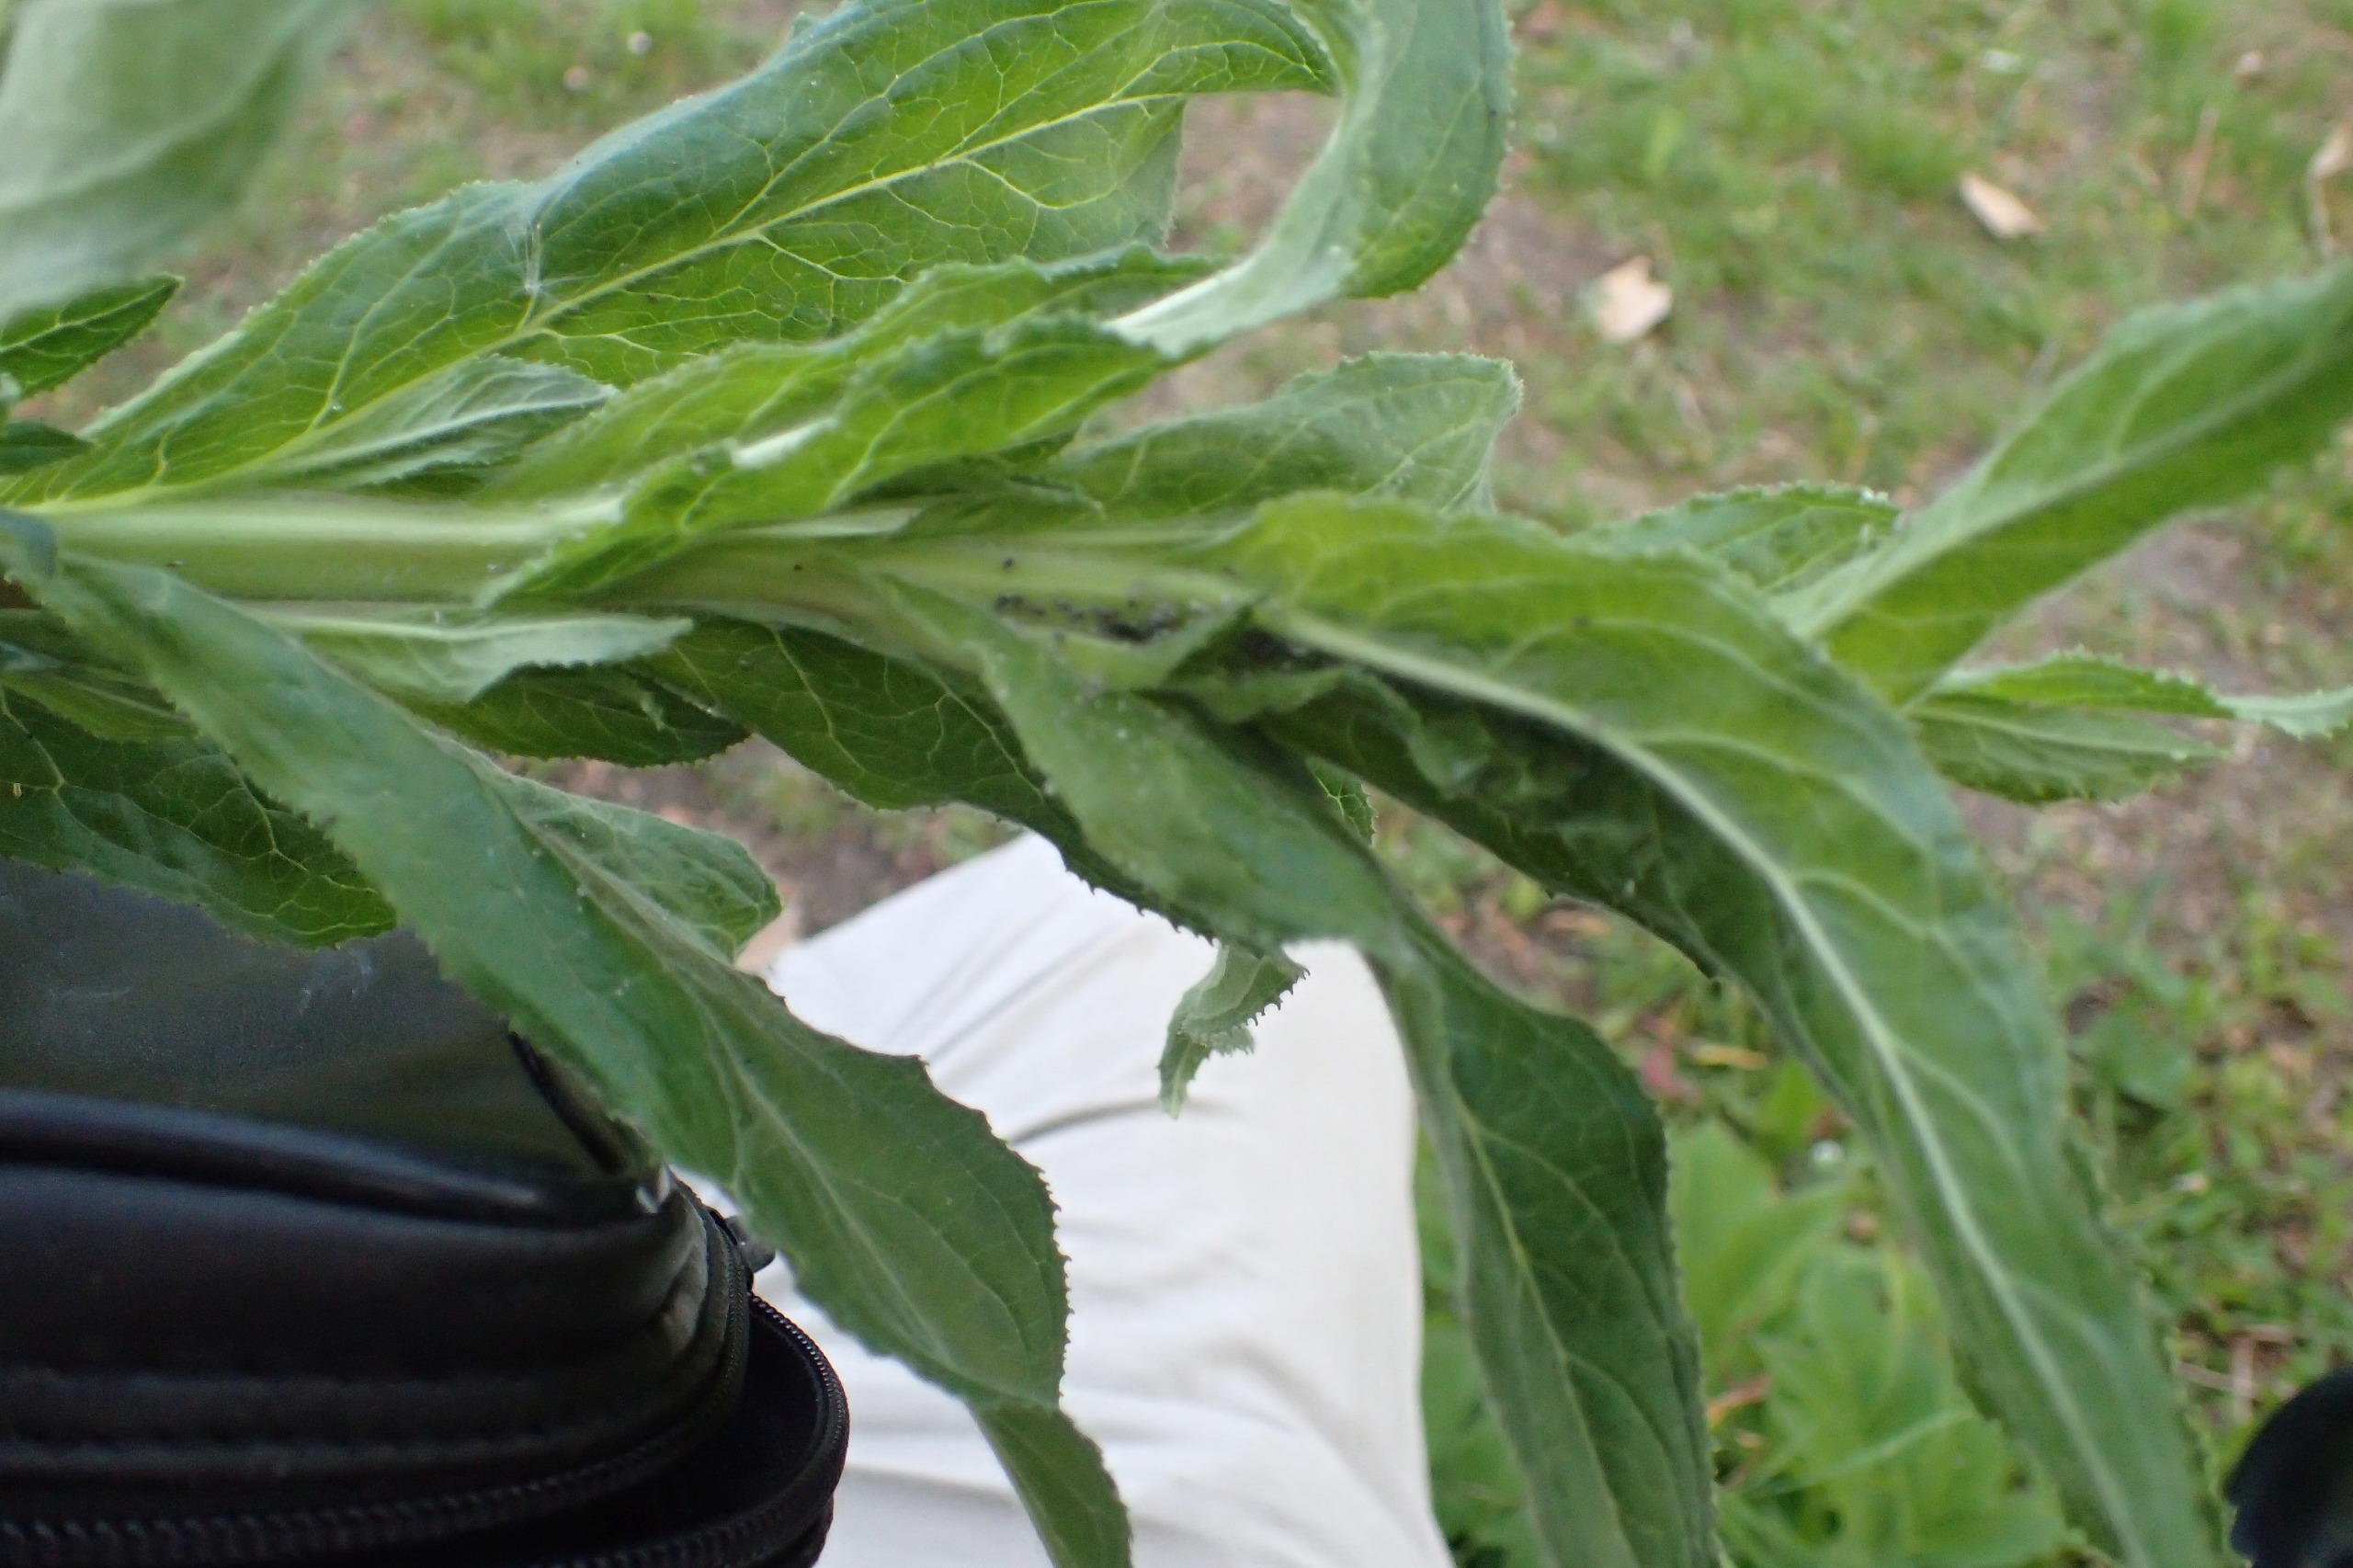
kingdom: Plantae
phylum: Tracheophyta
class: Magnoliopsida
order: Myrtales
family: Onagraceae
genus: Epilobium
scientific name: Epilobium hirsutum
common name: Lådden dueurt
